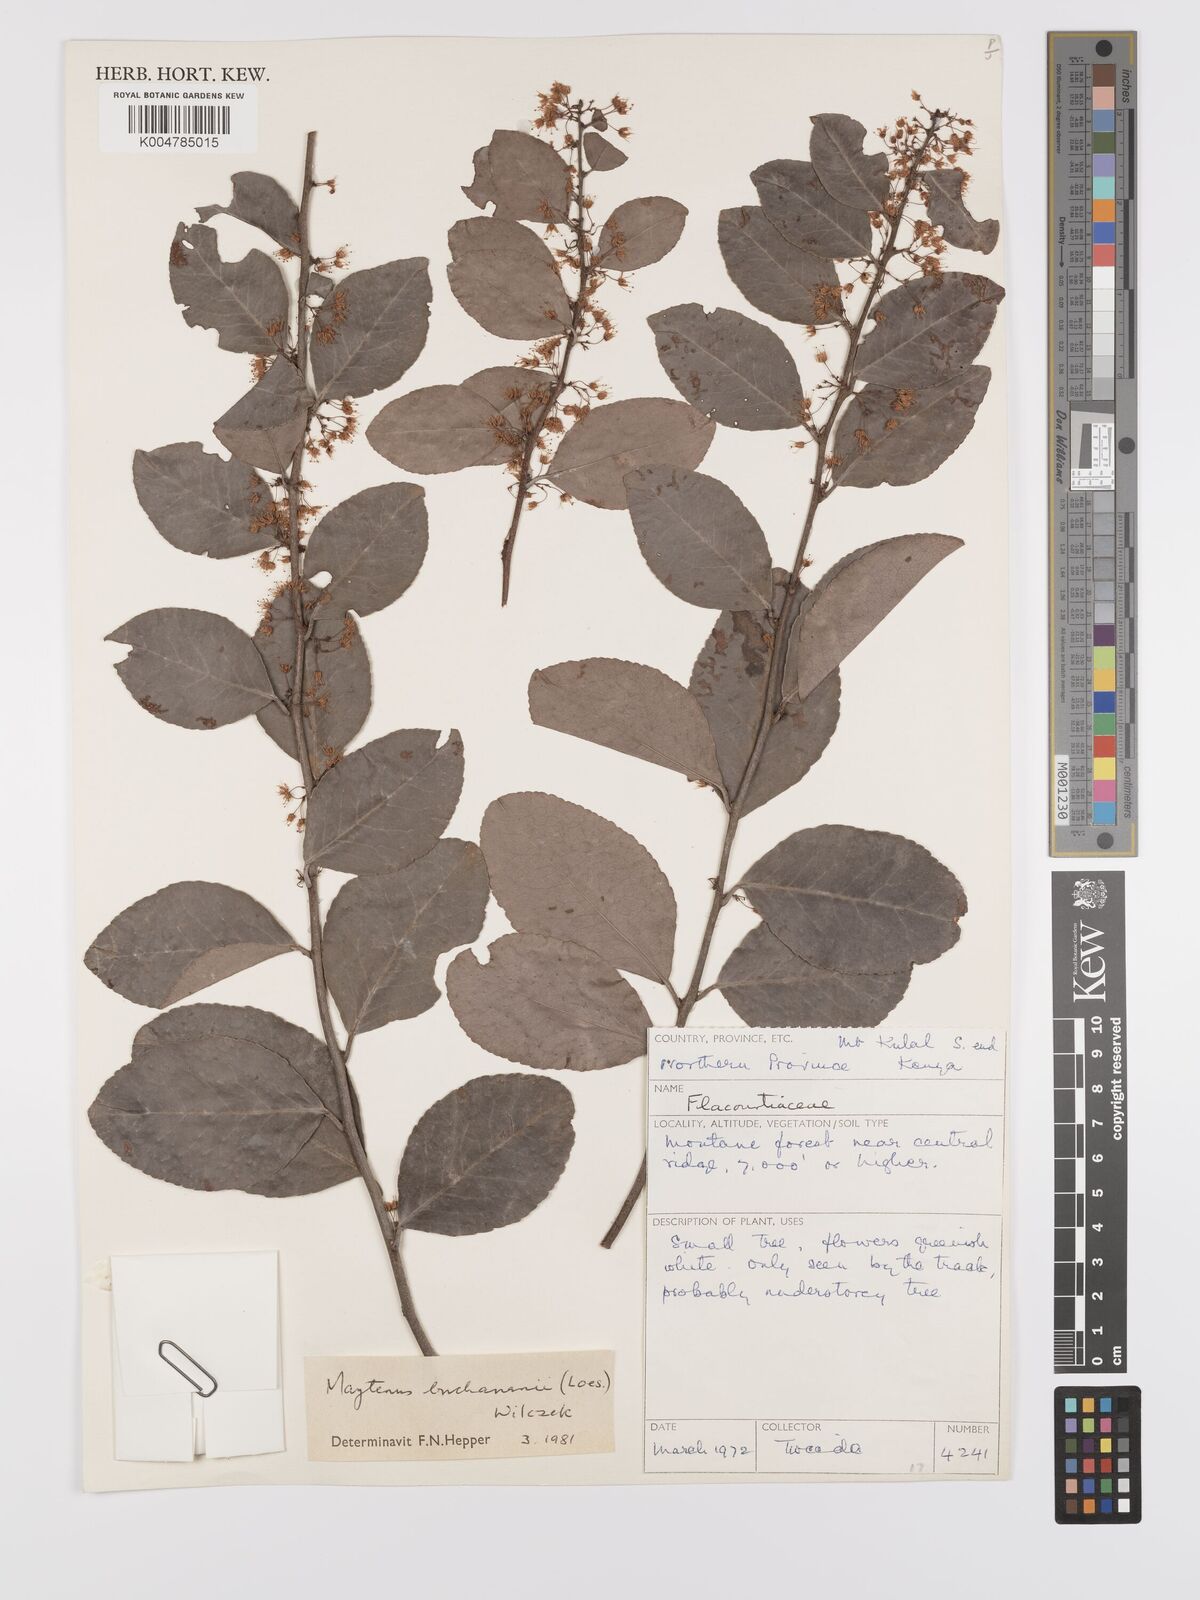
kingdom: Plantae
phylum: Tracheophyta
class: Magnoliopsida
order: Celastrales
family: Celastraceae
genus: Gymnosporia
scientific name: Gymnosporia buchananii
